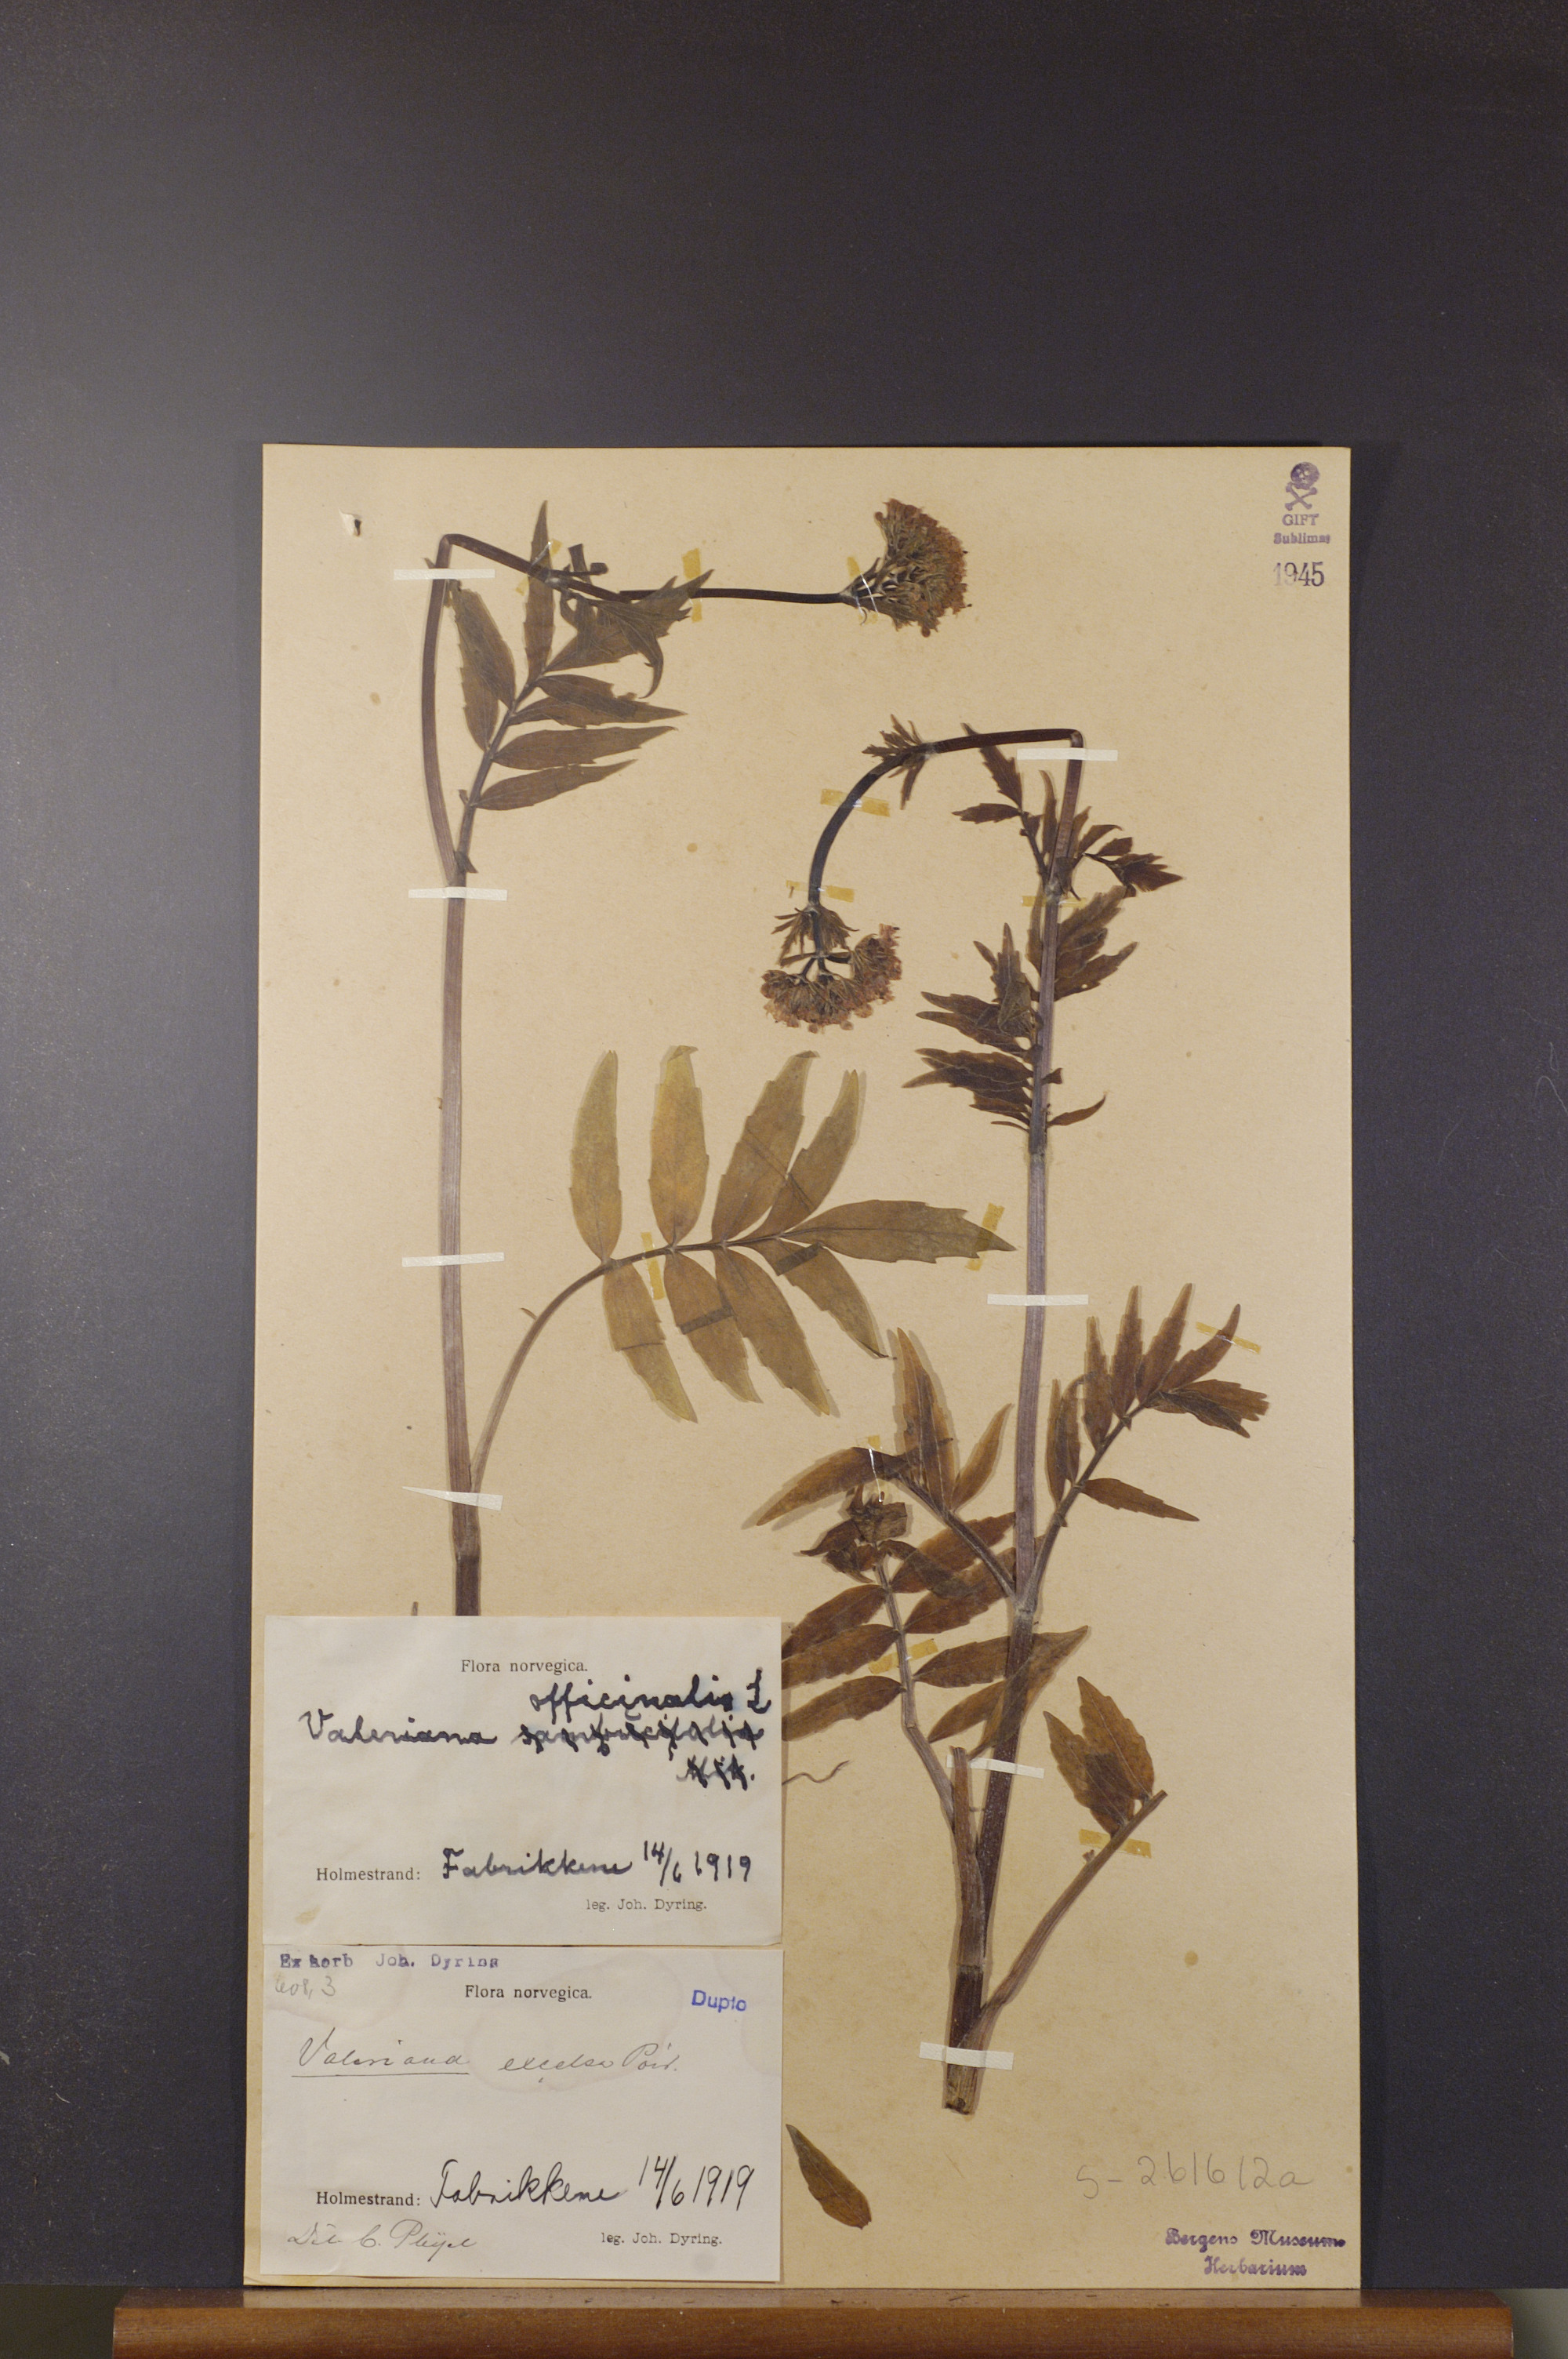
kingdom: Plantae
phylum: Tracheophyta
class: Magnoliopsida
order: Dipsacales
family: Caprifoliaceae
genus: Valeriana
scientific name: Valeriana sambucifolia
